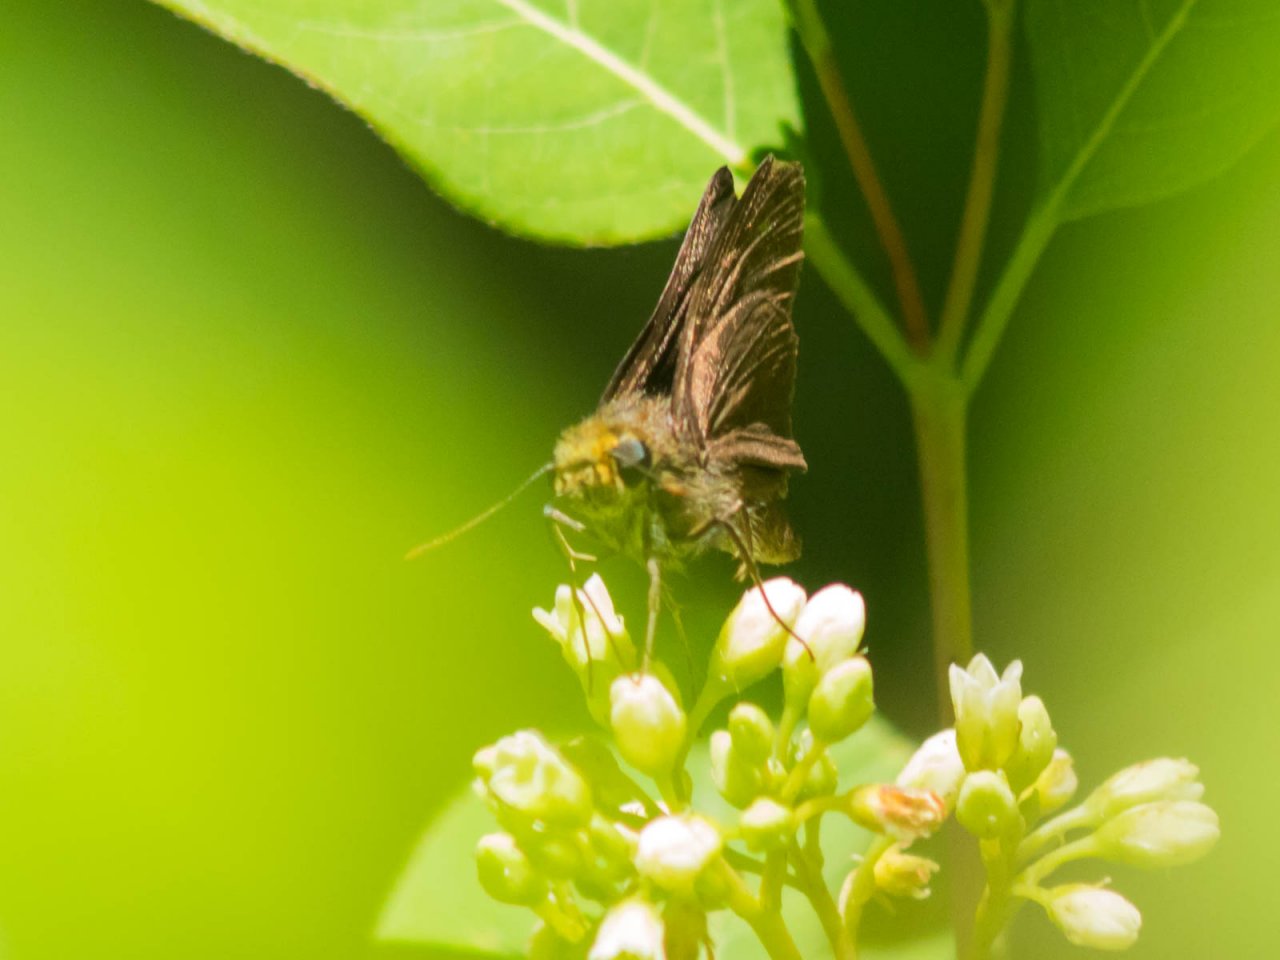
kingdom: Animalia
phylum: Arthropoda
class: Insecta
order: Lepidoptera
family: Hesperiidae
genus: Euphyes
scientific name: Euphyes vestris
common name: Dun Skipper
